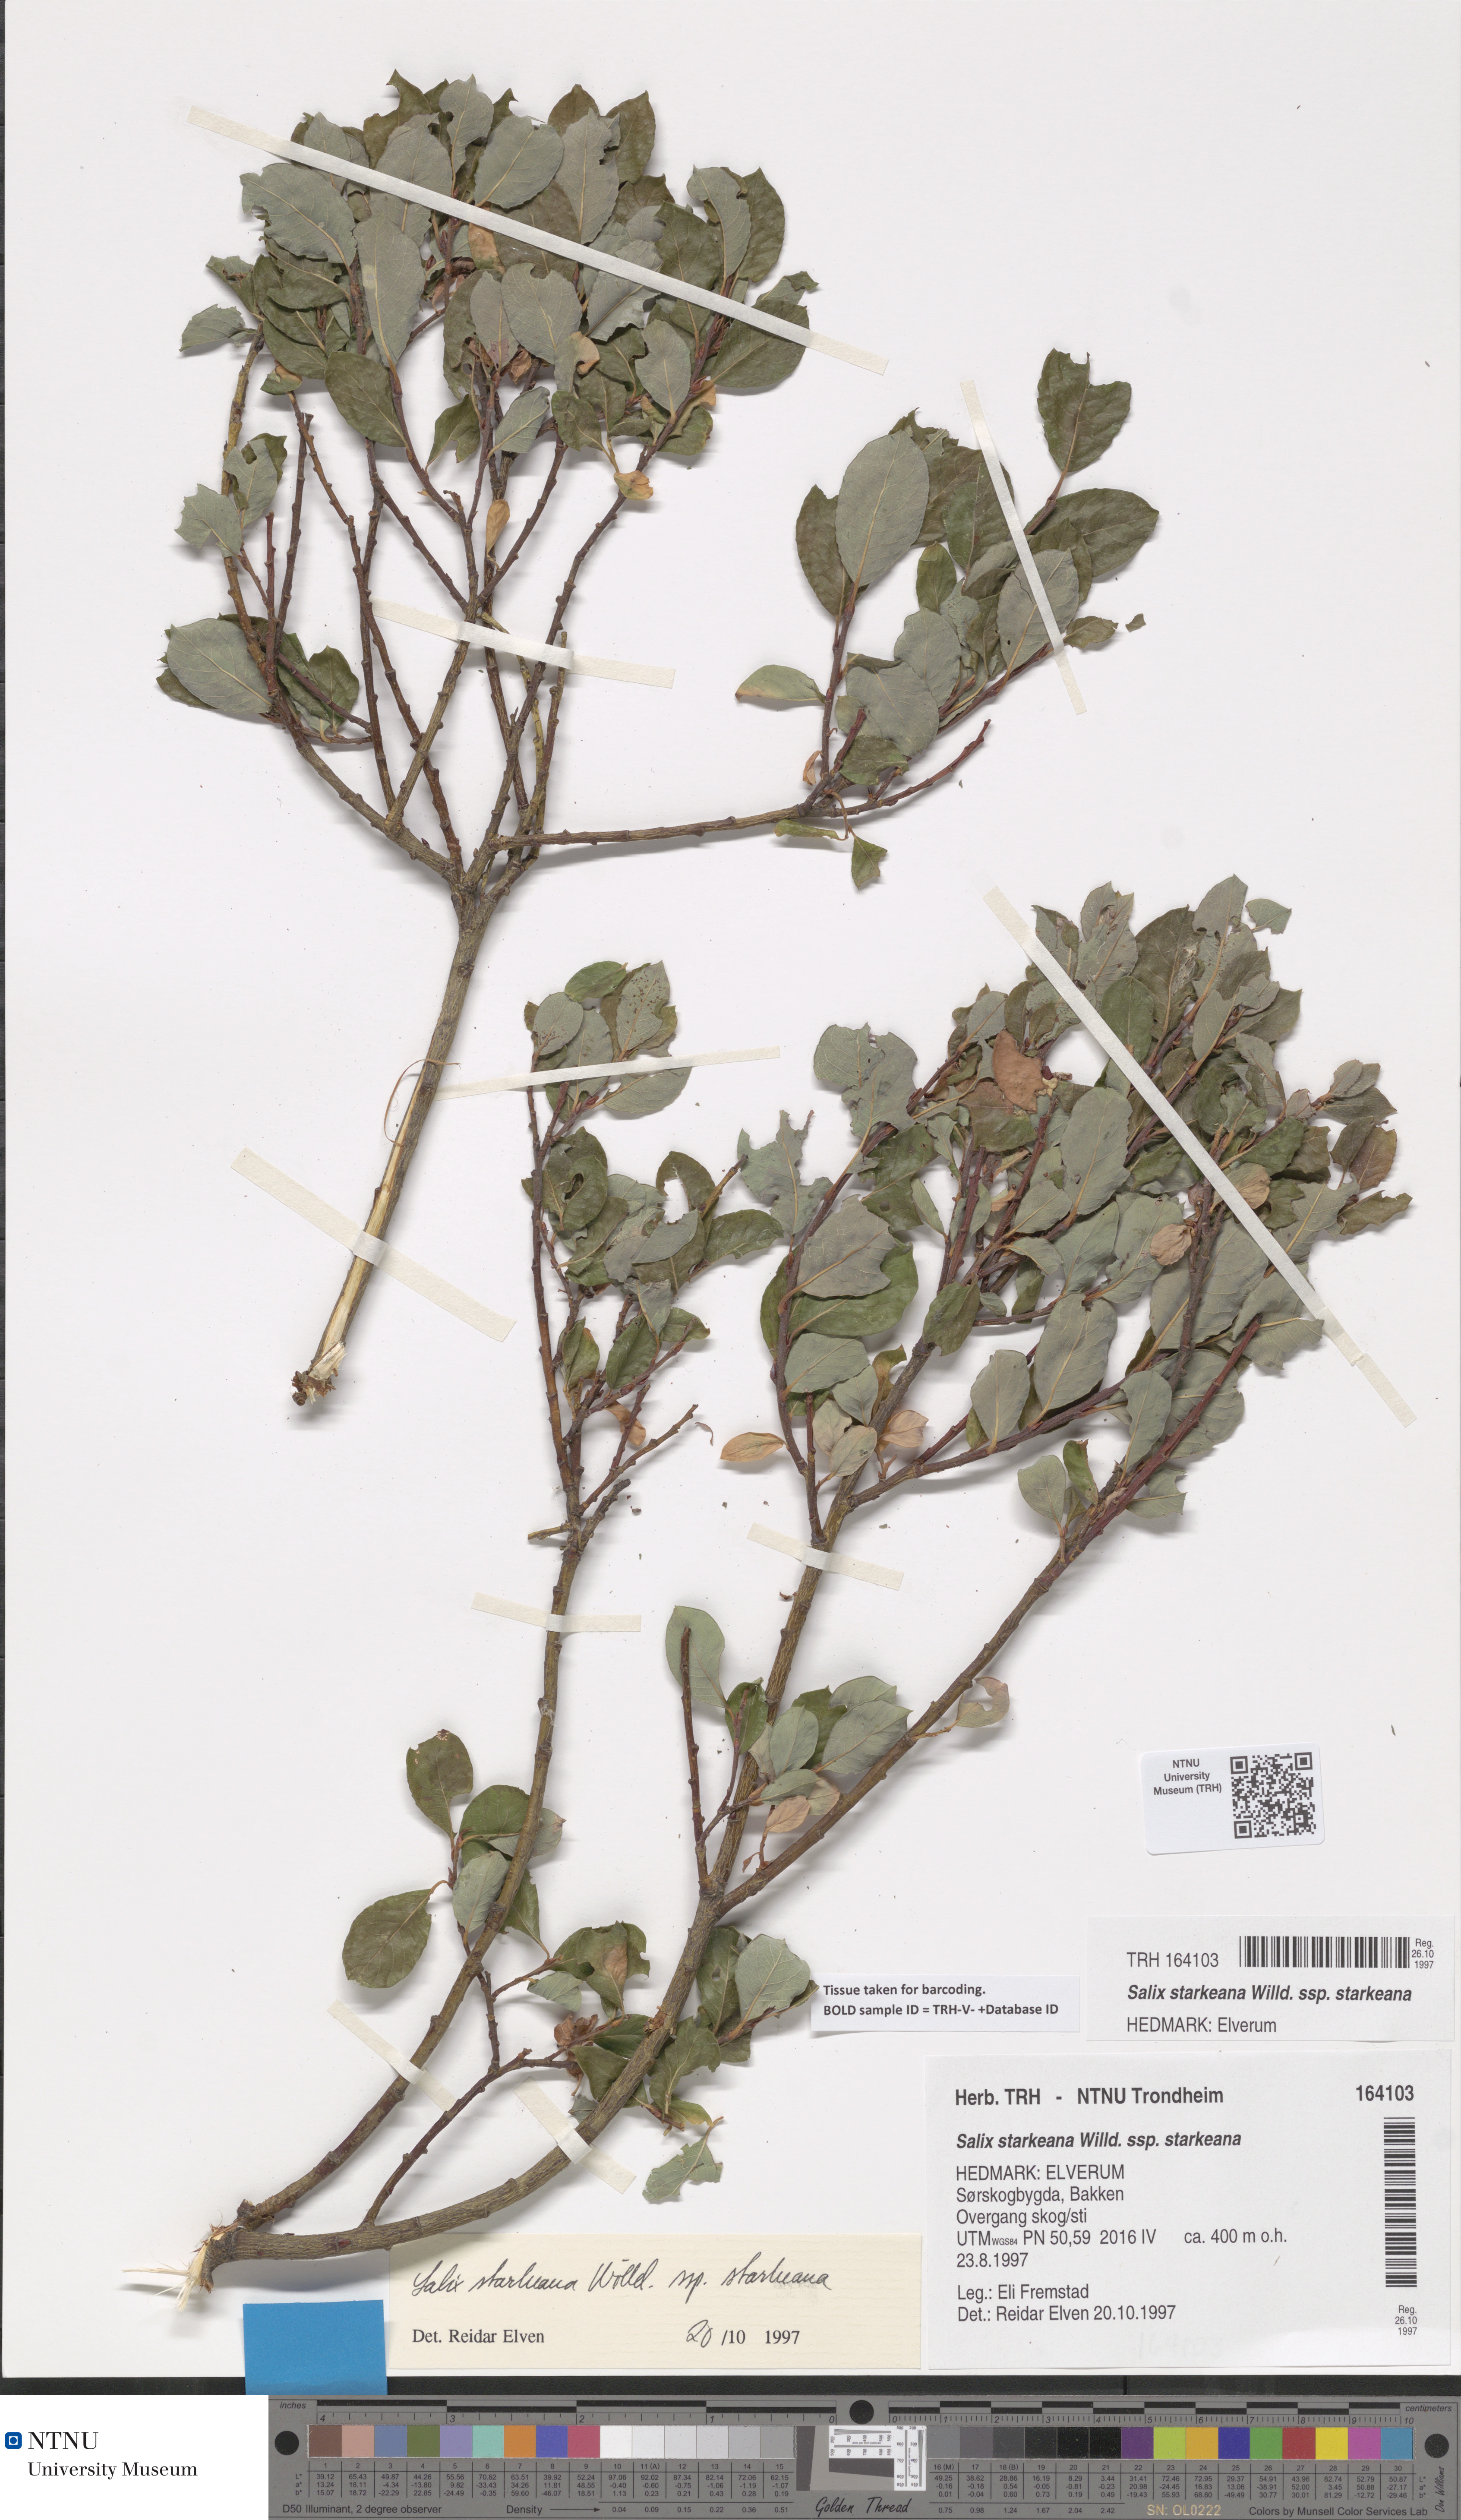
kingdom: Plantae
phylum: Tracheophyta
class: Magnoliopsida
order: Malpighiales
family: Salicaceae
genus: Salix
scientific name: Salix starkeana
